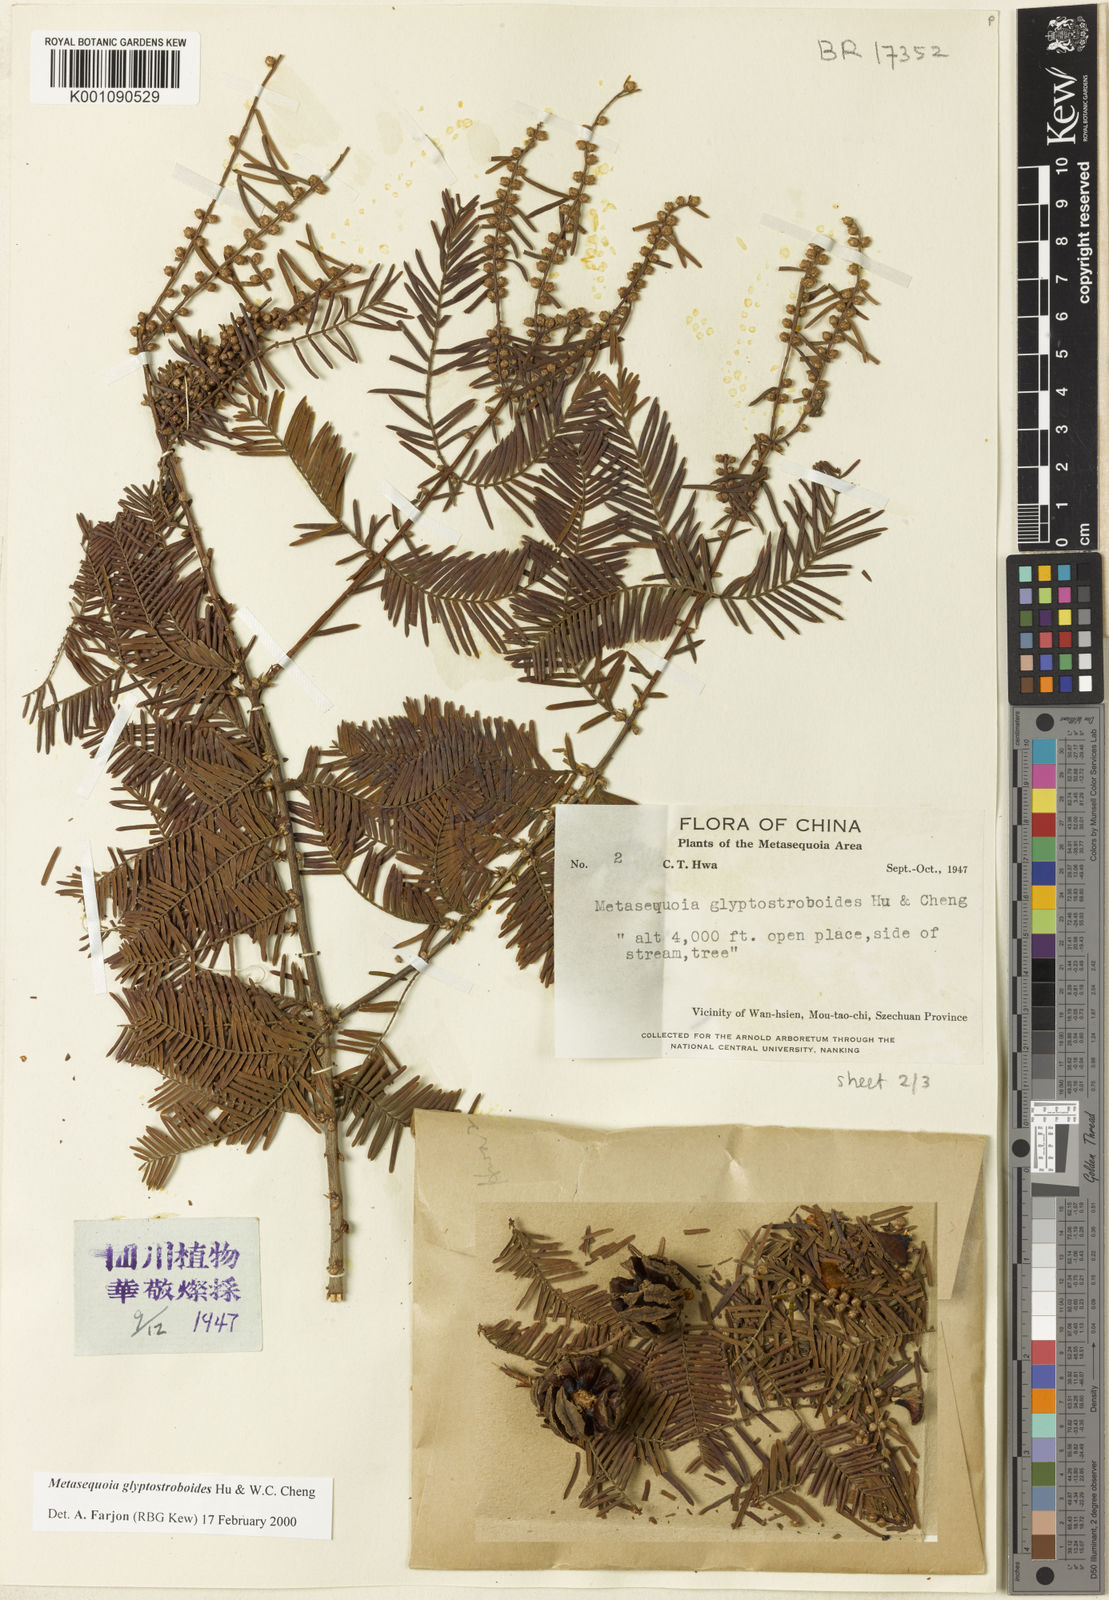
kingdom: Plantae
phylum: Tracheophyta
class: Pinopsida
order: Pinales
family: Cupressaceae
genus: Metasequoia
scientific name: Metasequoia glyptostroboides
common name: Dawn redwood
